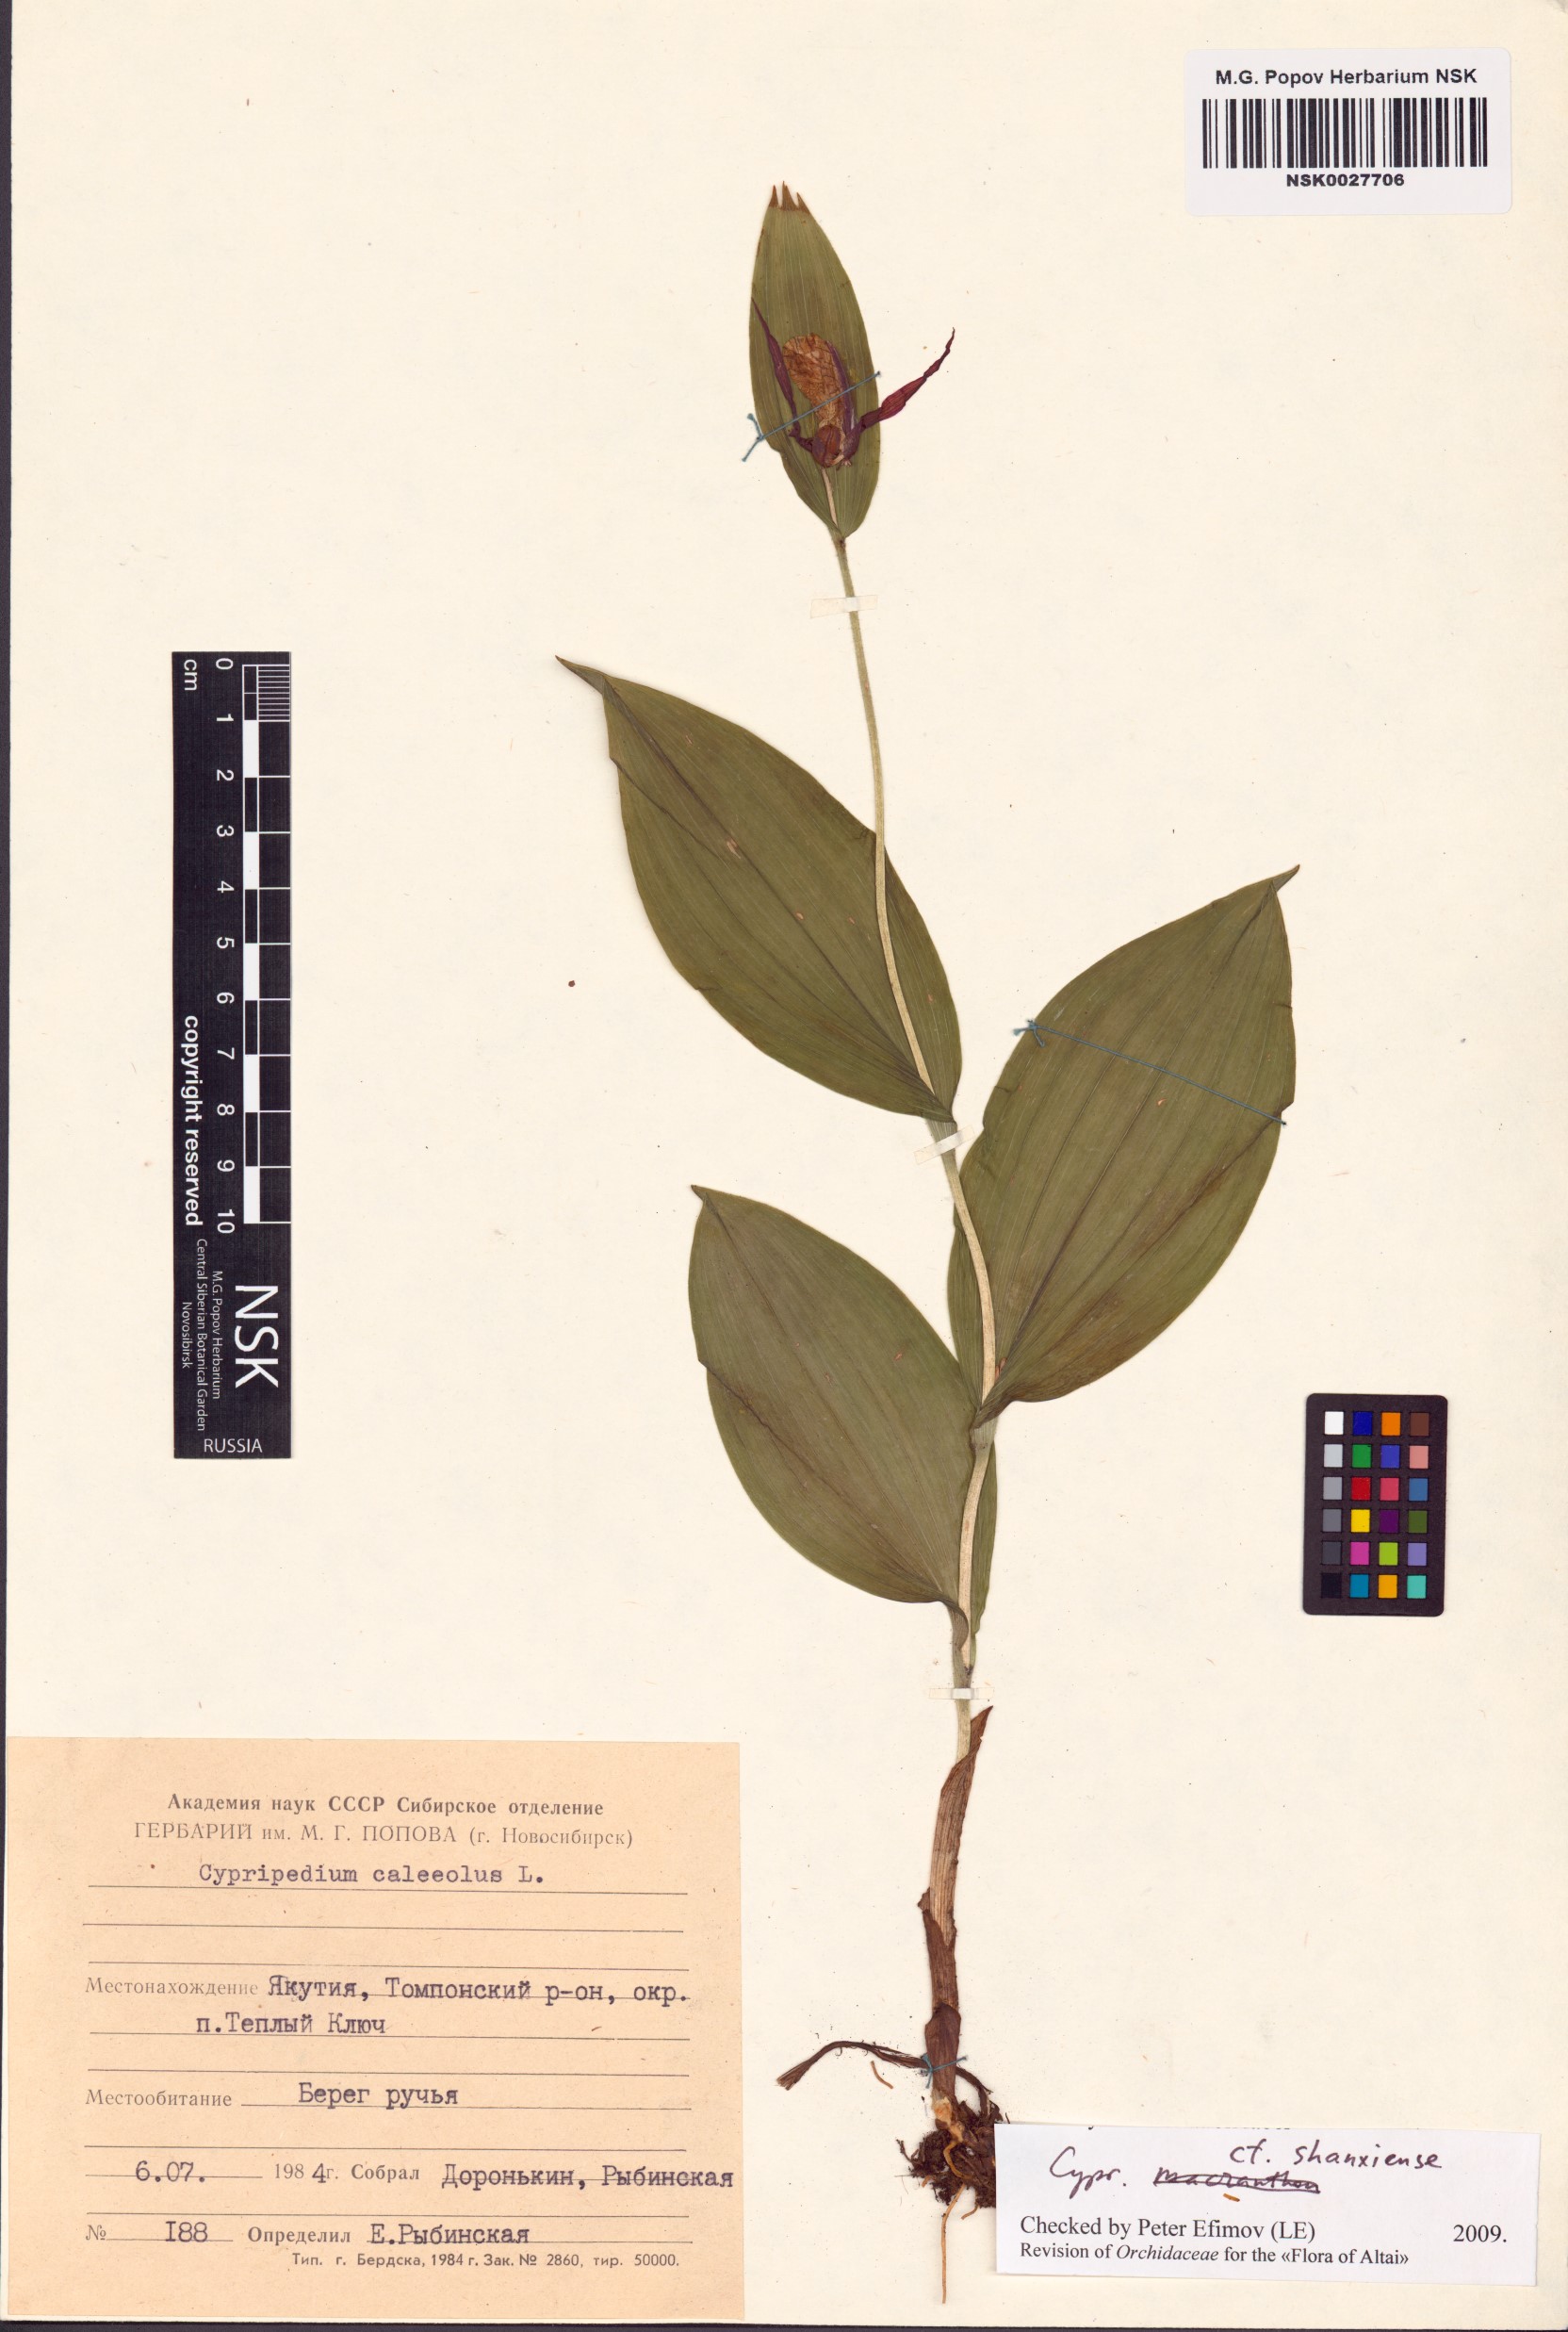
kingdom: Plantae
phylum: Tracheophyta
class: Liliopsida
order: Asparagales
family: Orchidaceae
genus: Cypripedium
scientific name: Cypripedium calceolus
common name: Lady's-slipper
